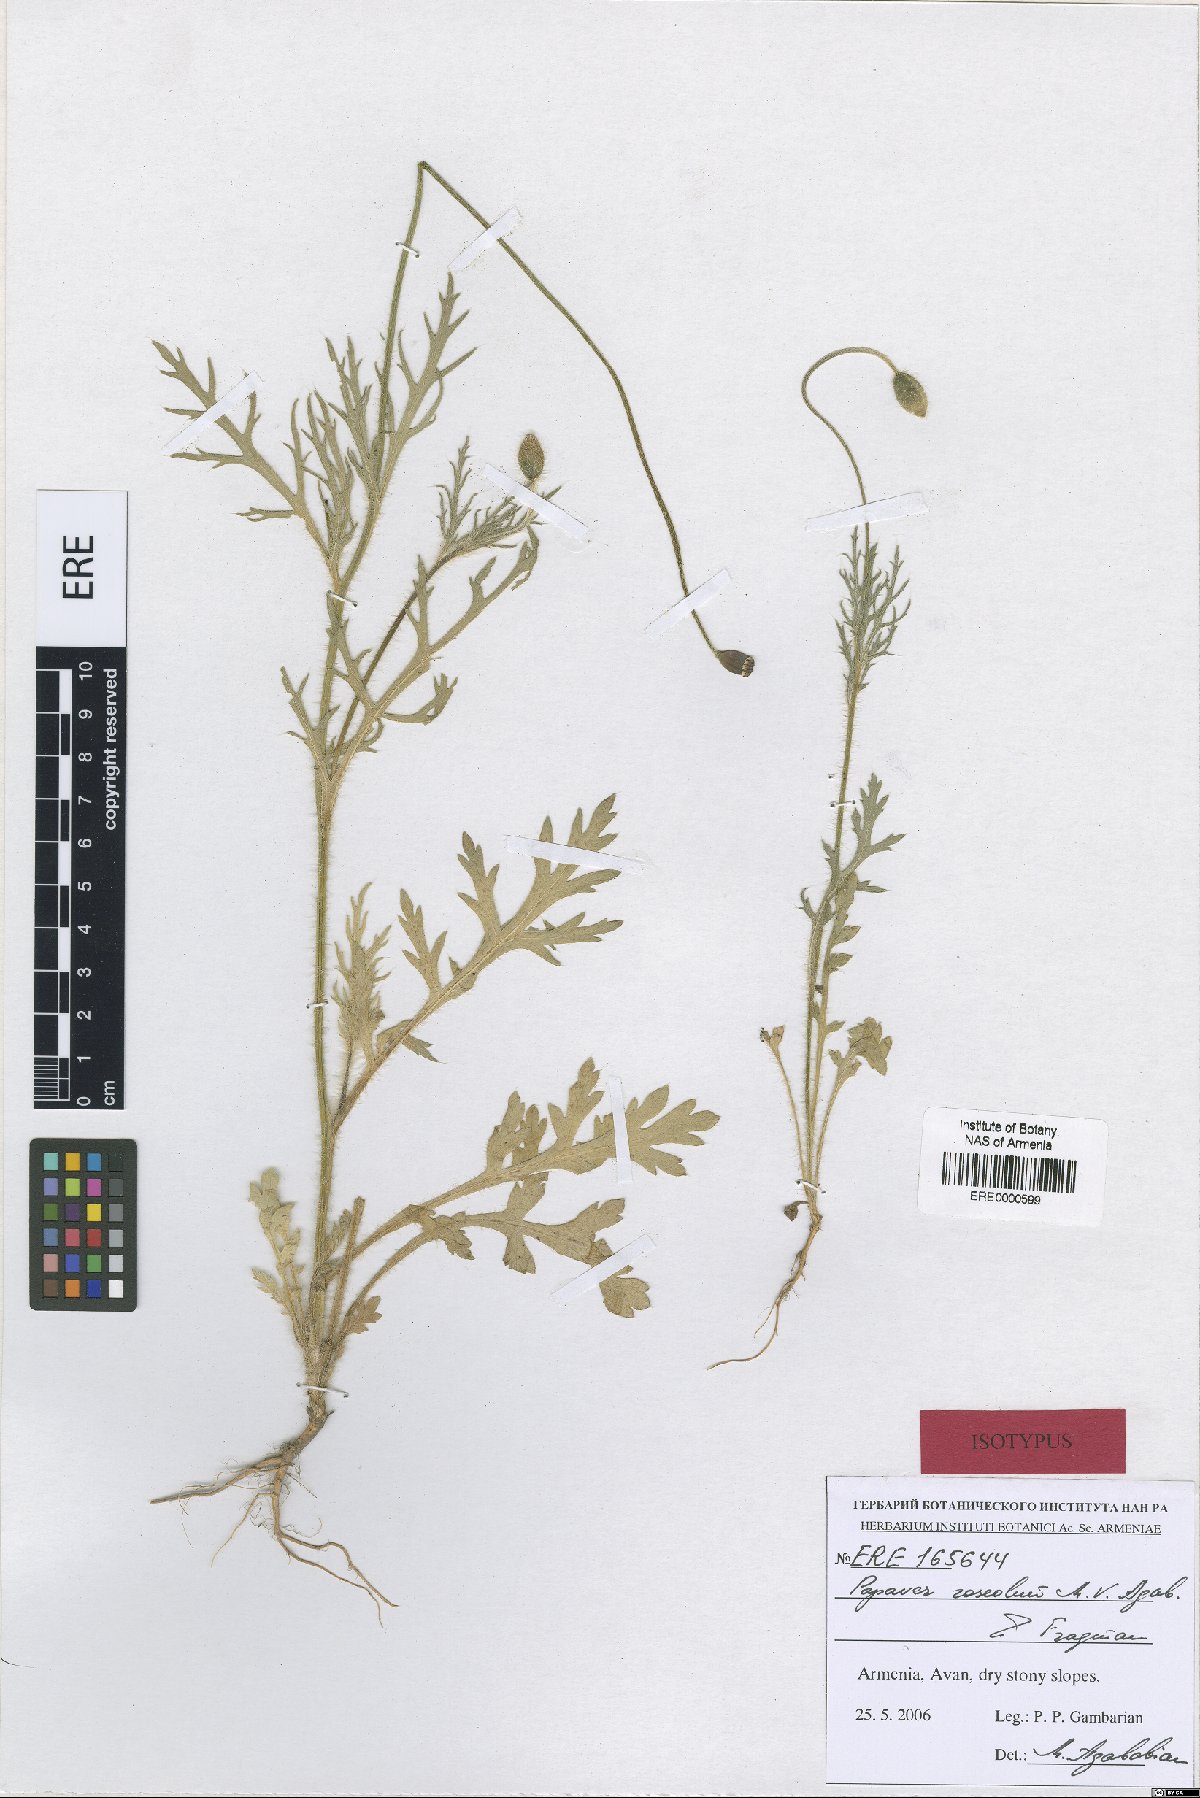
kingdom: Plantae
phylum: Tracheophyta
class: Magnoliopsida
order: Ranunculales
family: Papaveraceae
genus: Papaver
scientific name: Papaver roseolum
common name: Pinkish poppy
